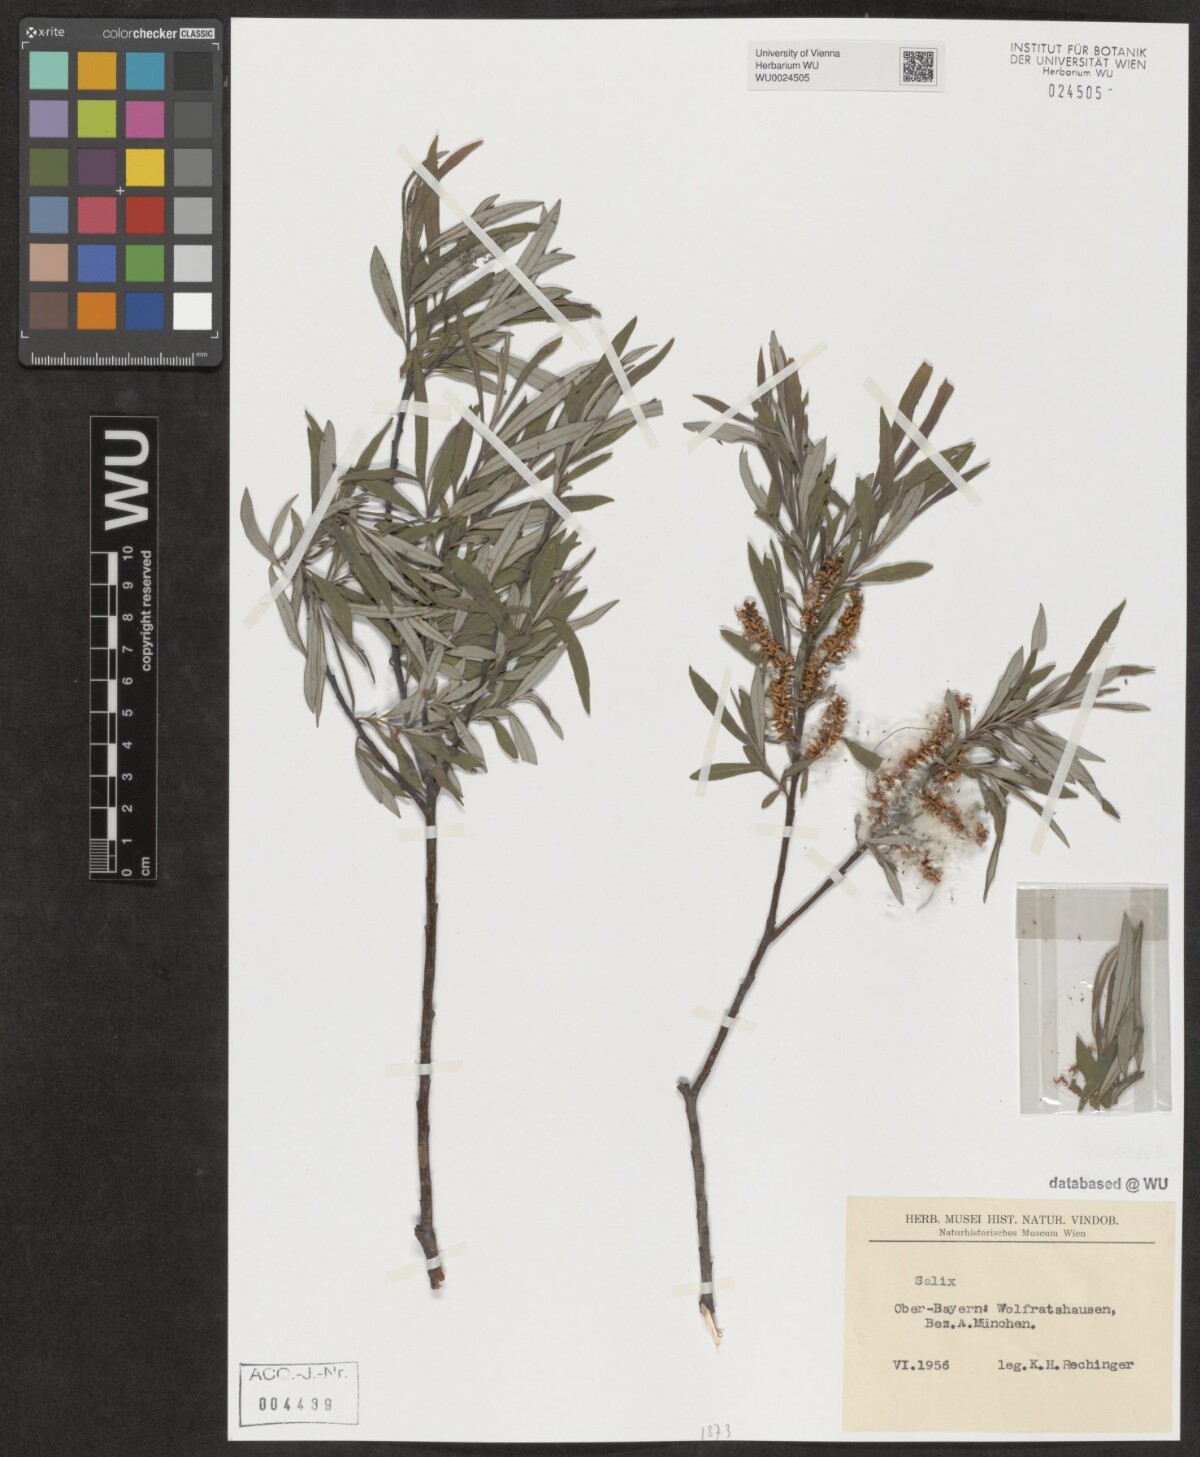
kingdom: Plantae
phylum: Tracheophyta
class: Magnoliopsida
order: Malpighiales
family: Salicaceae
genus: Salix
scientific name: Salix
